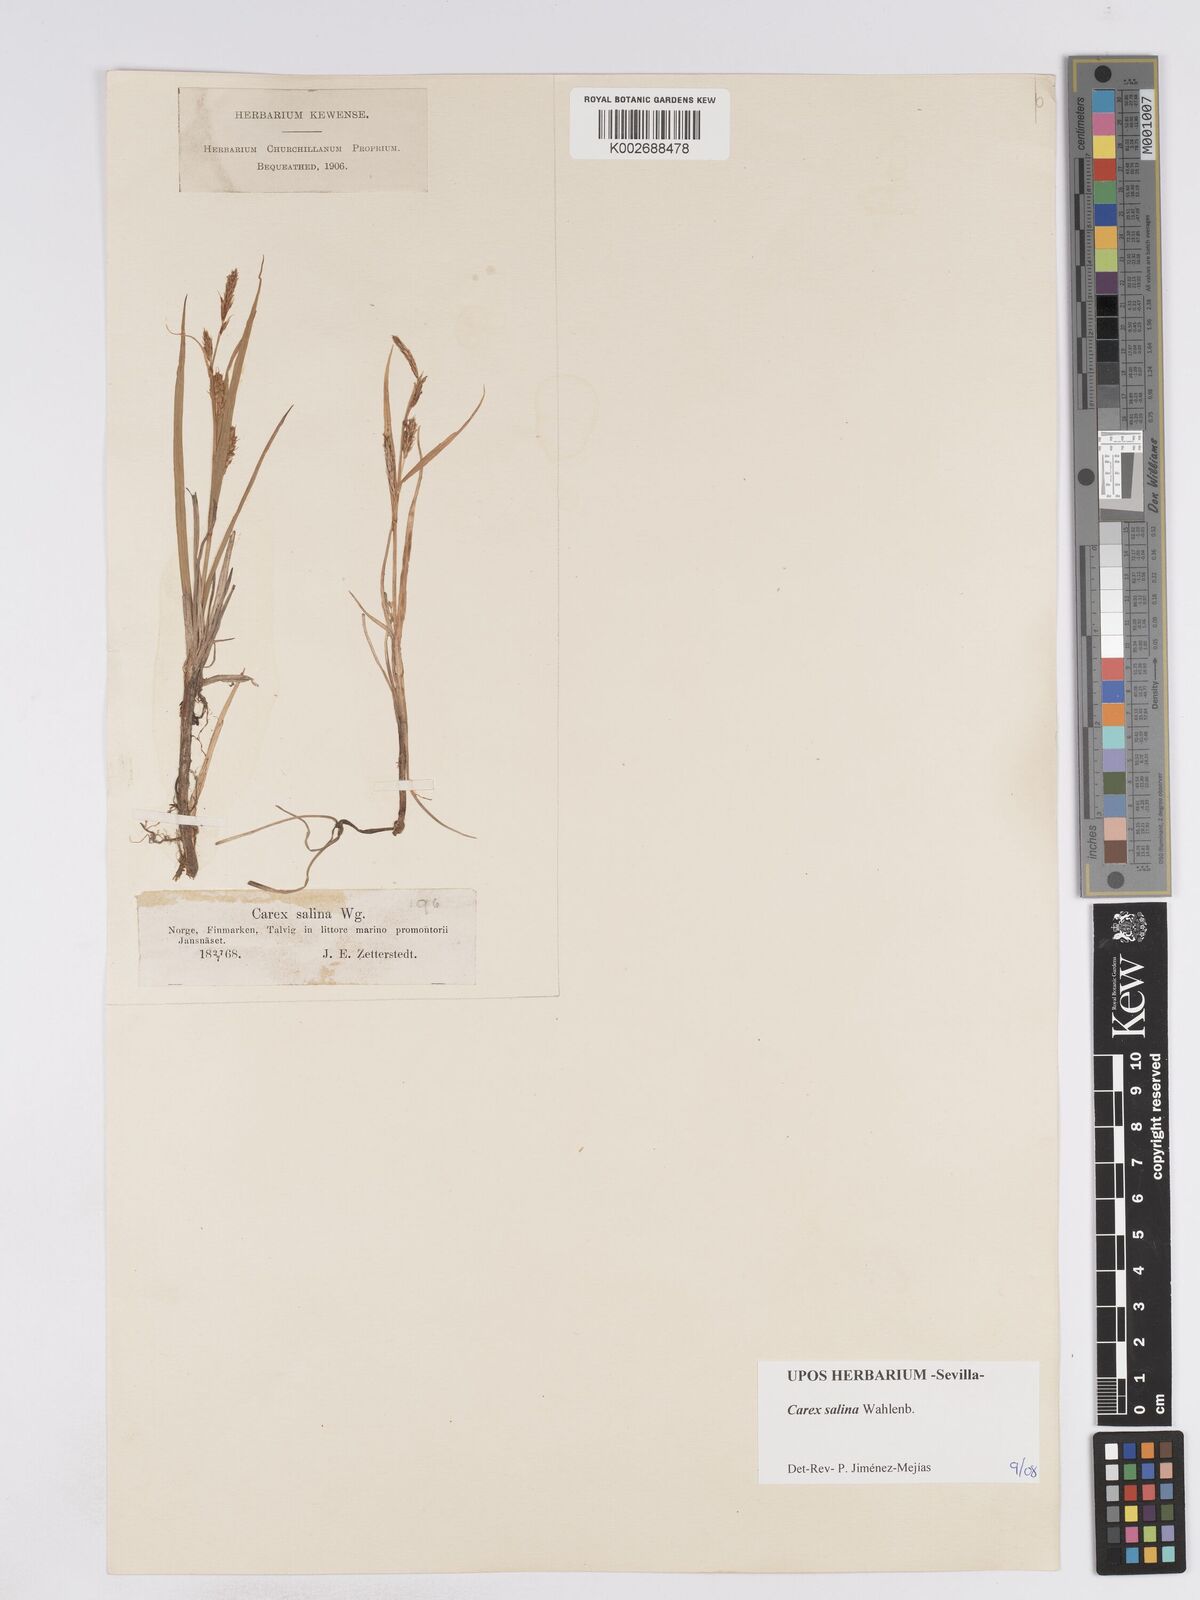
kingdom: Plantae
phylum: Tracheophyta
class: Liliopsida
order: Poales
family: Cyperaceae
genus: Carex
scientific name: Carex salina
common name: Saltmarsh sedge
